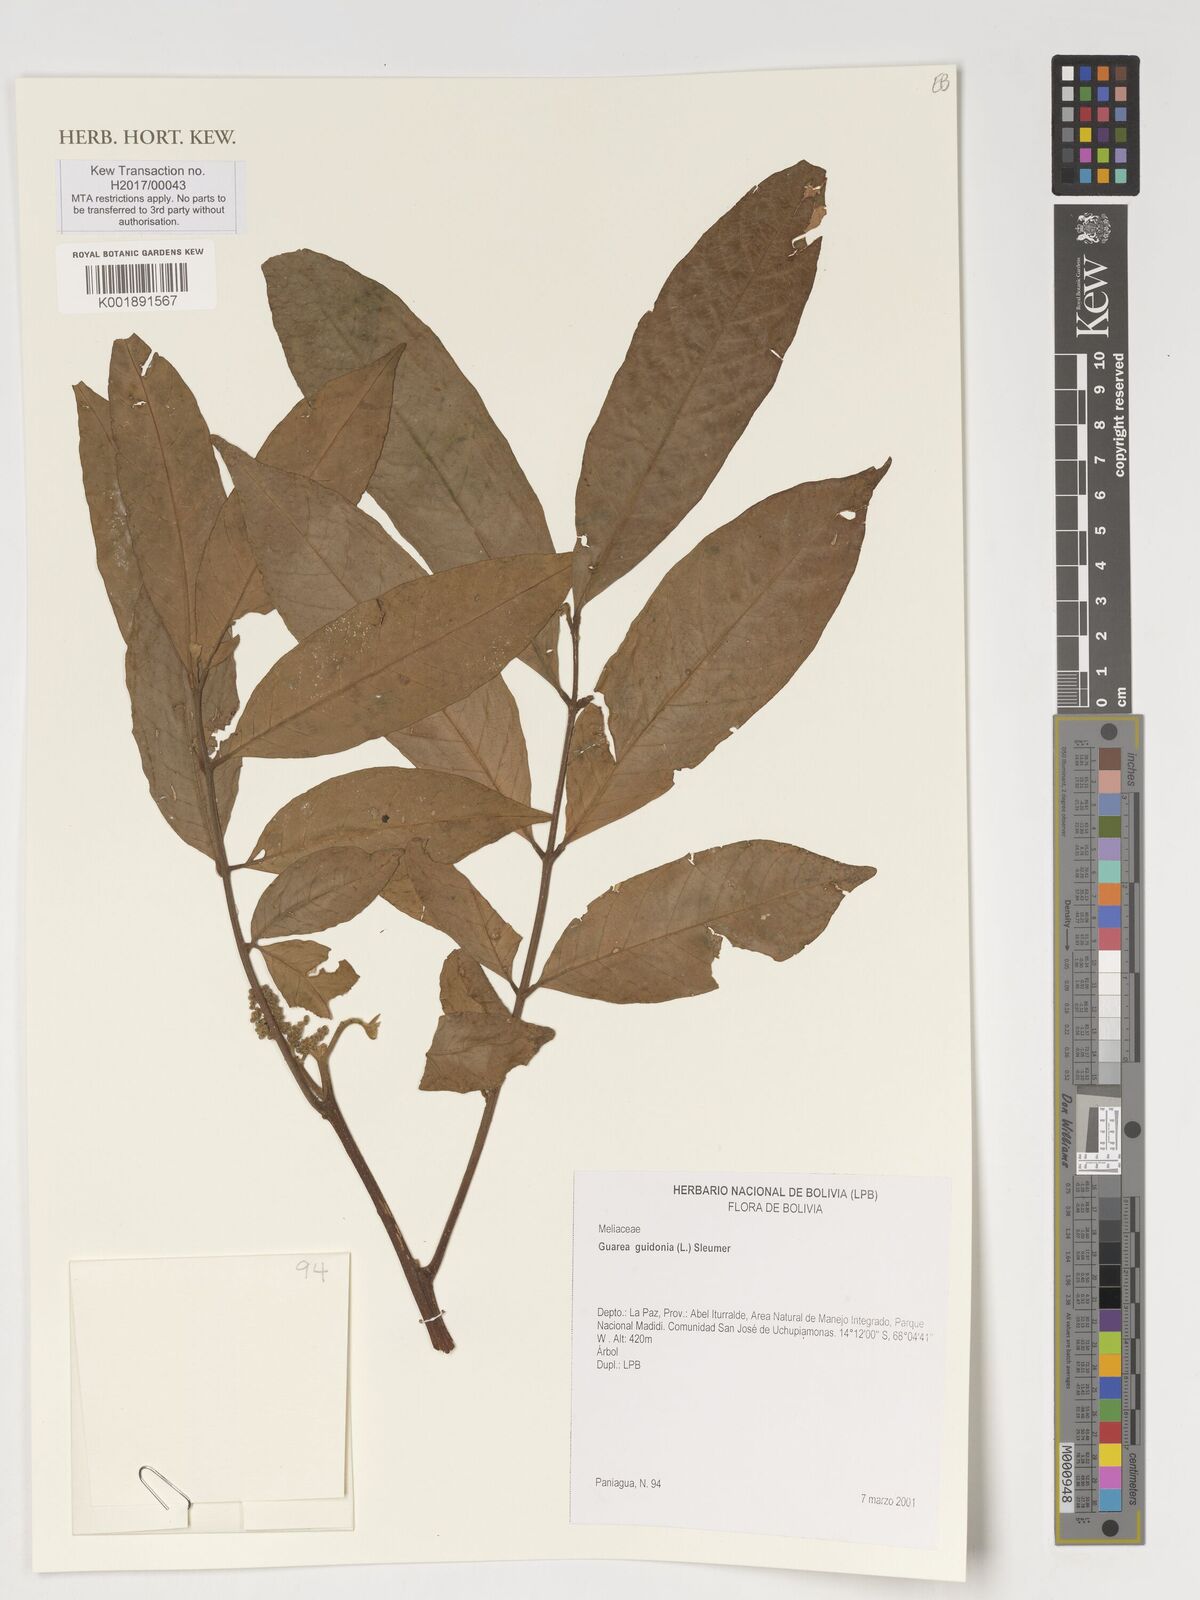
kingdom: Plantae
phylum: Tracheophyta
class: Magnoliopsida
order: Sapindales
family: Meliaceae
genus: Guarea
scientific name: Guarea guidonia
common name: American muskwood
